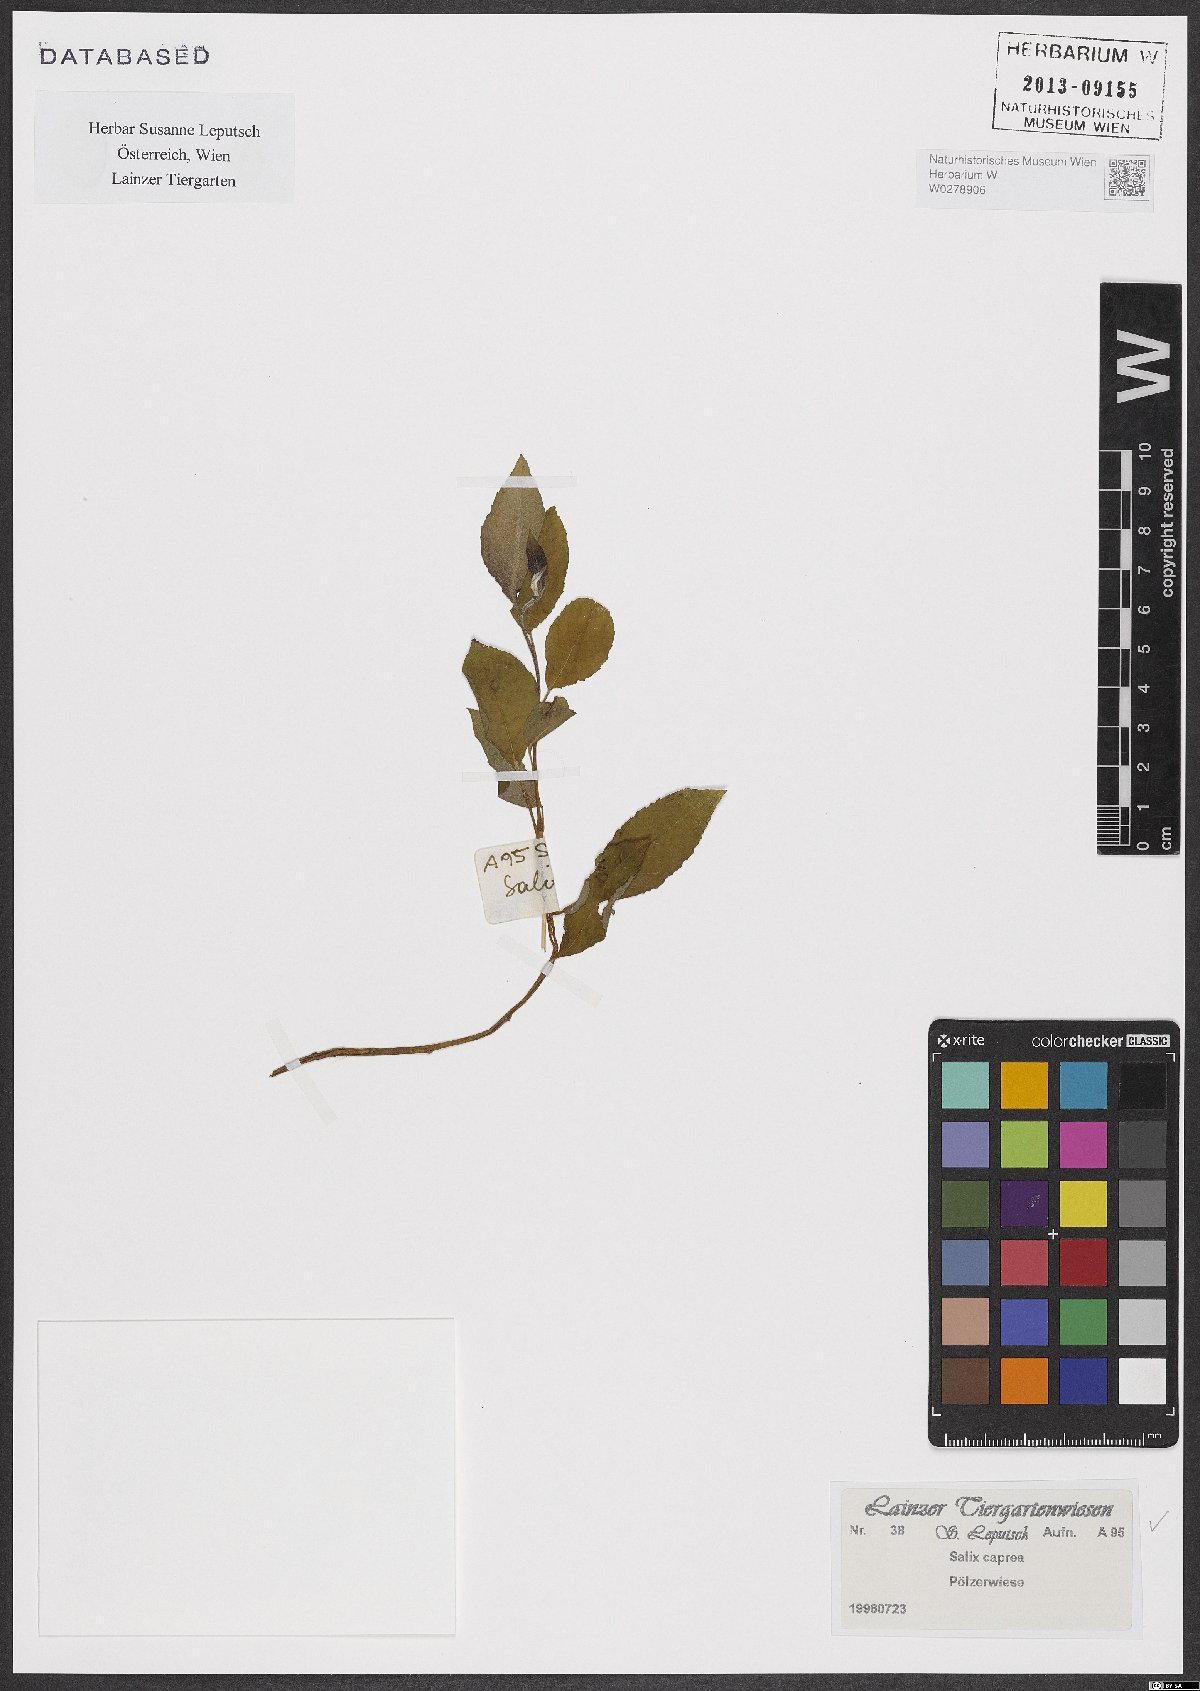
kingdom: Plantae
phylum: Tracheophyta
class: Magnoliopsida
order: Malpighiales
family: Salicaceae
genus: Salix
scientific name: Salix caprea
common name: Goat willow
